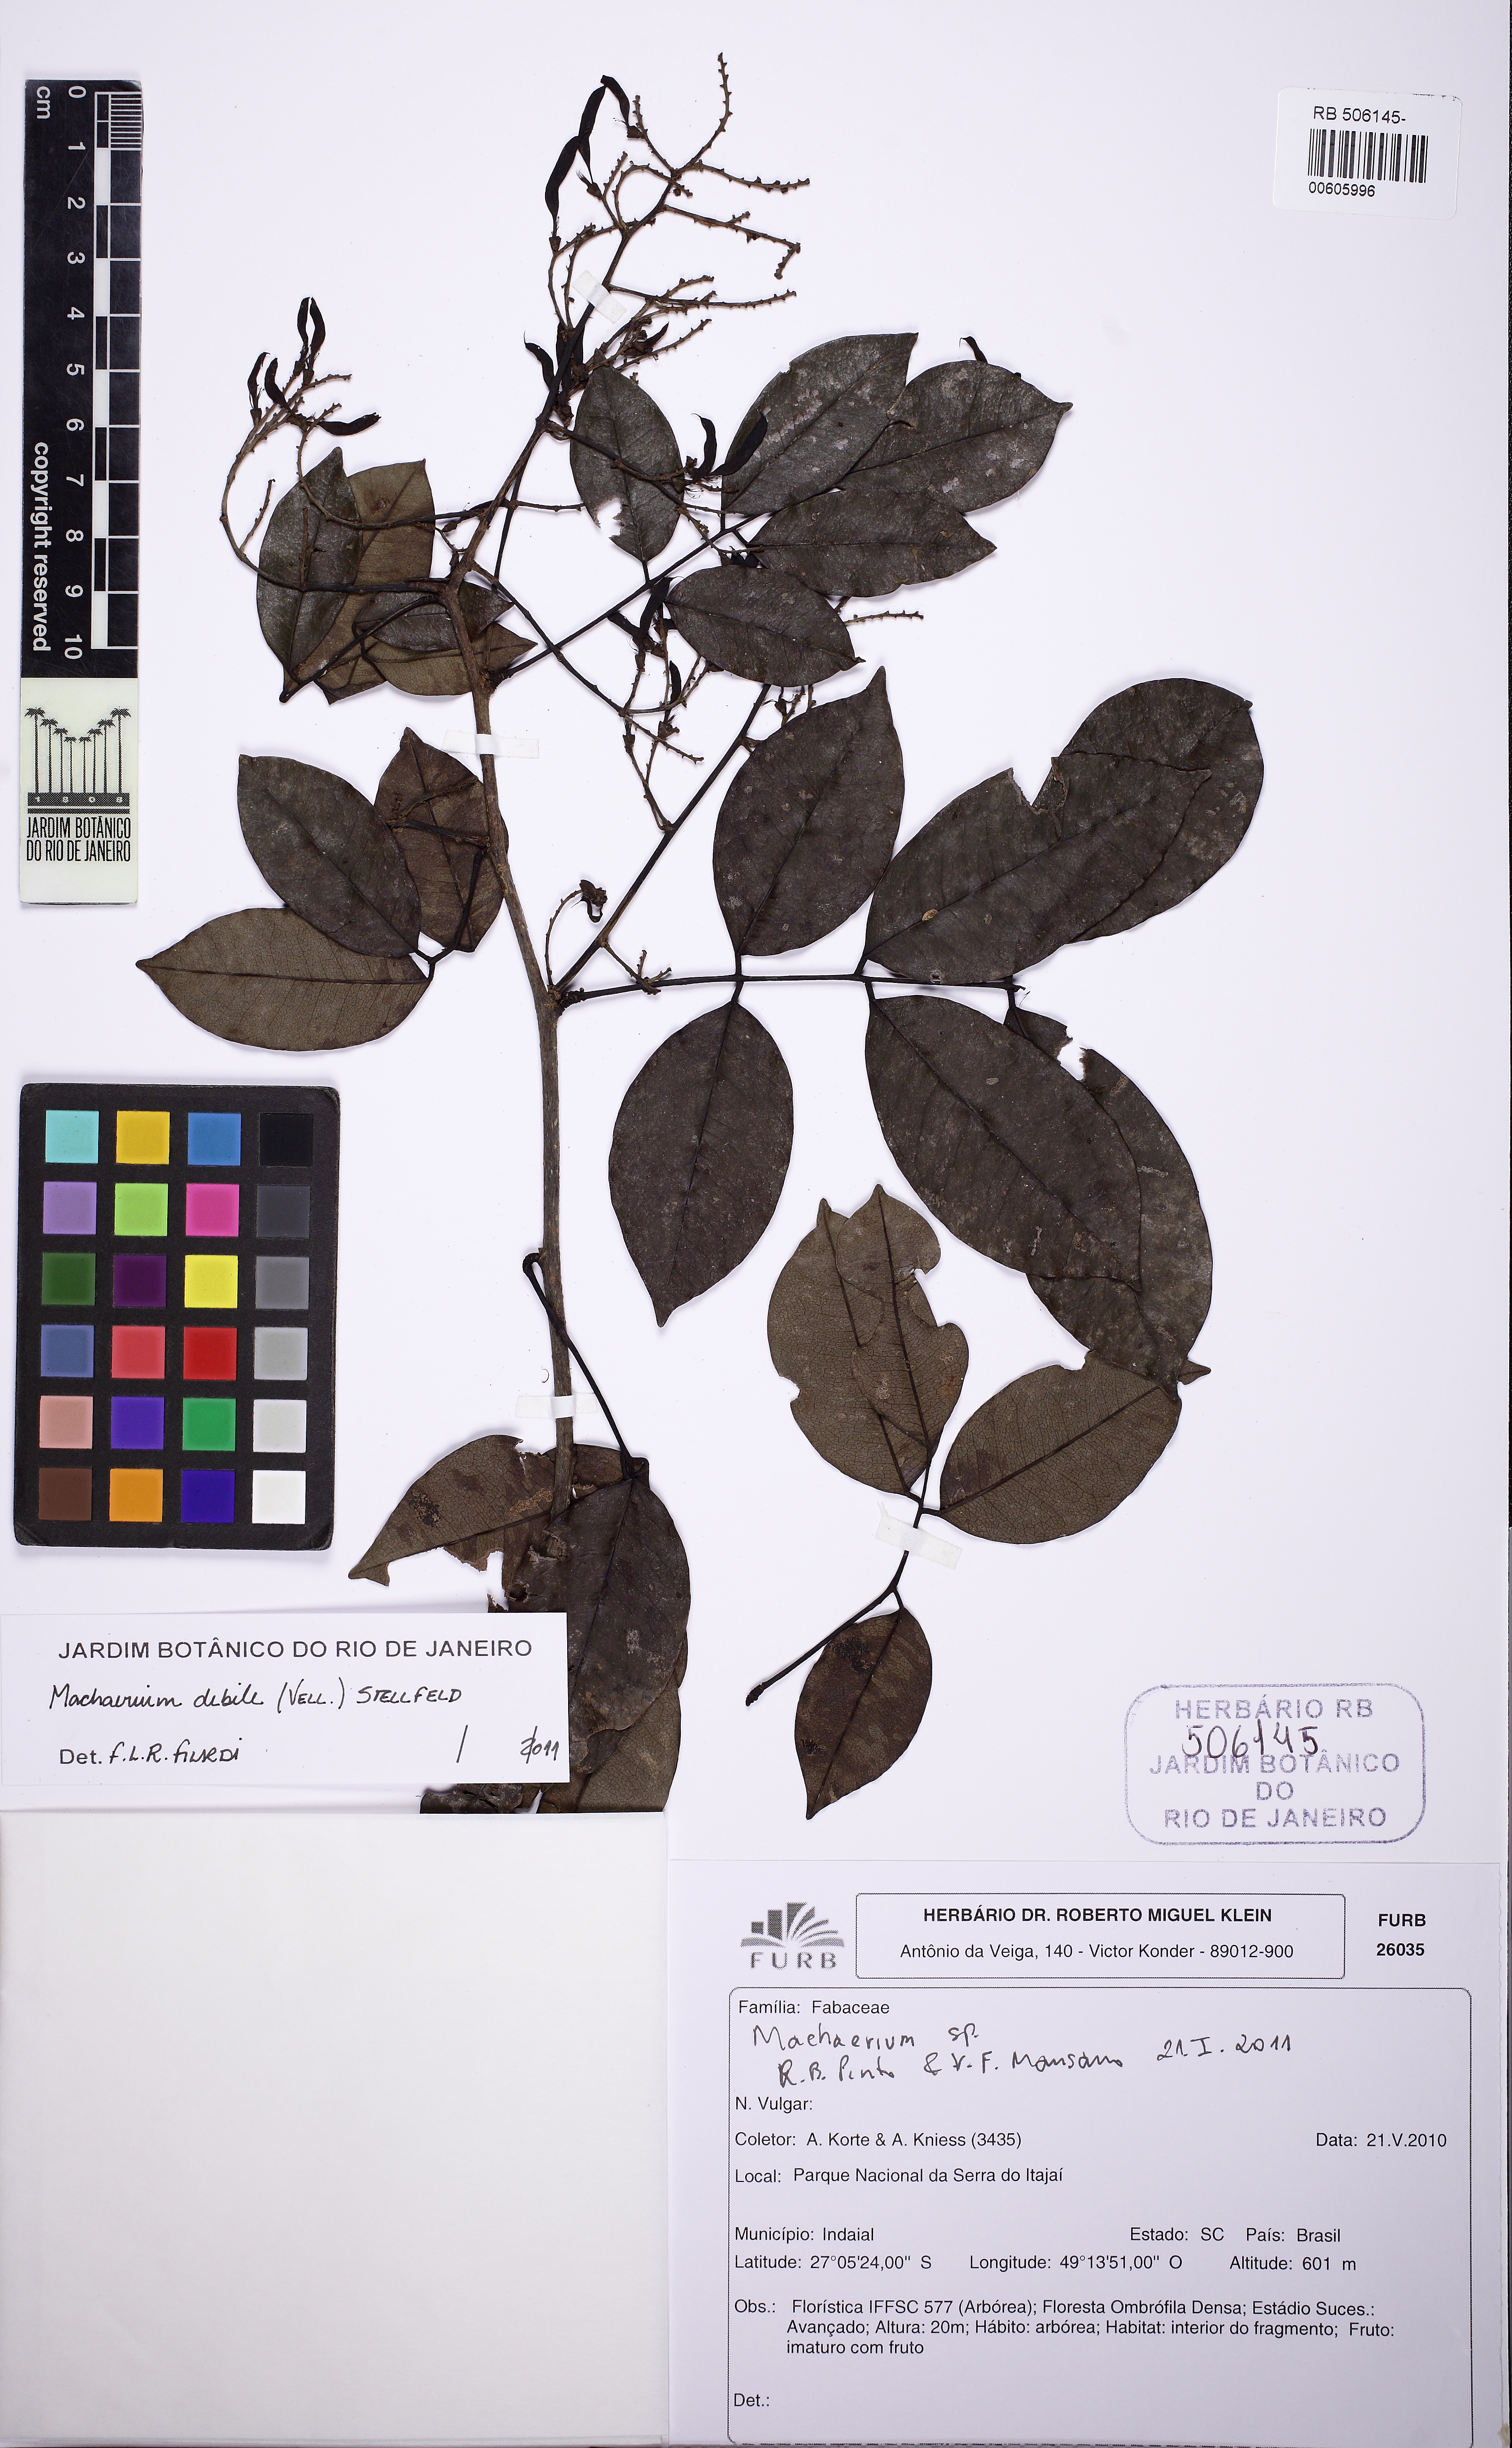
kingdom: Plantae
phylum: Tracheophyta
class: Magnoliopsida
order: Fabales
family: Fabaceae
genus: Machaerium
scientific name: Machaerium debile
